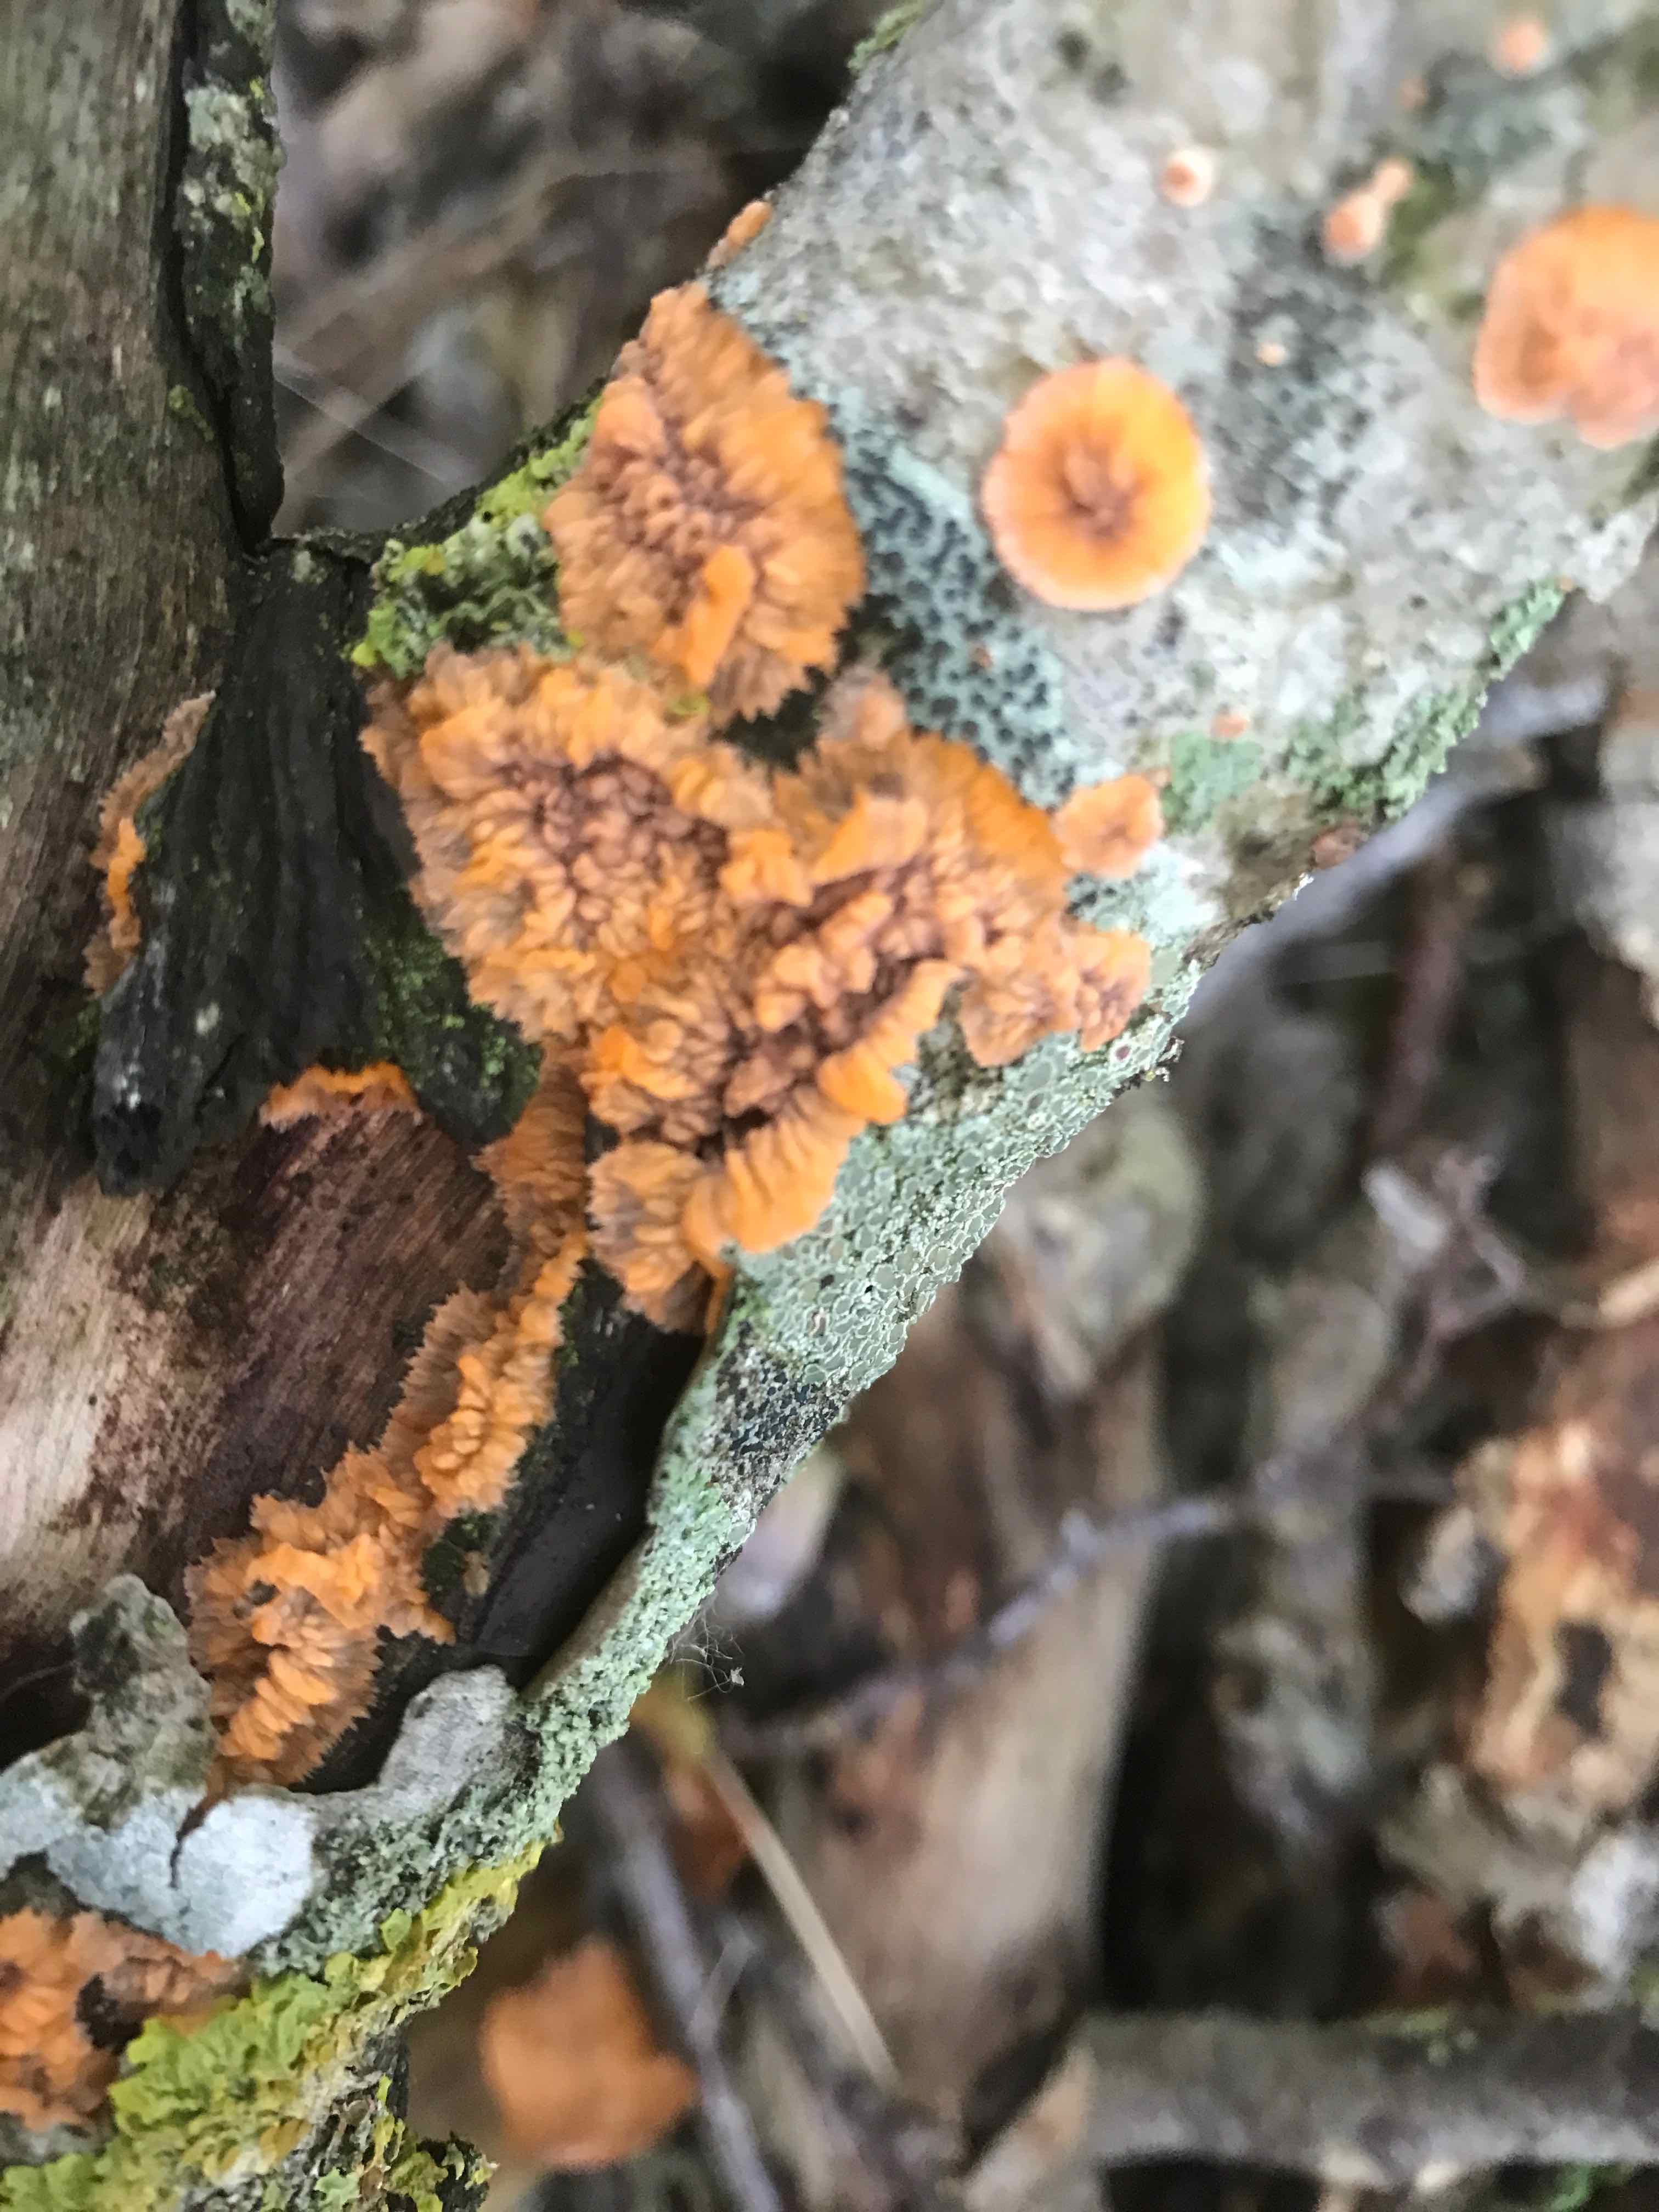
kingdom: Fungi
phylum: Basidiomycota
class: Agaricomycetes
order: Polyporales
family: Meruliaceae
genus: Phlebia
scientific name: Phlebia radiata
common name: stråle-åresvamp
